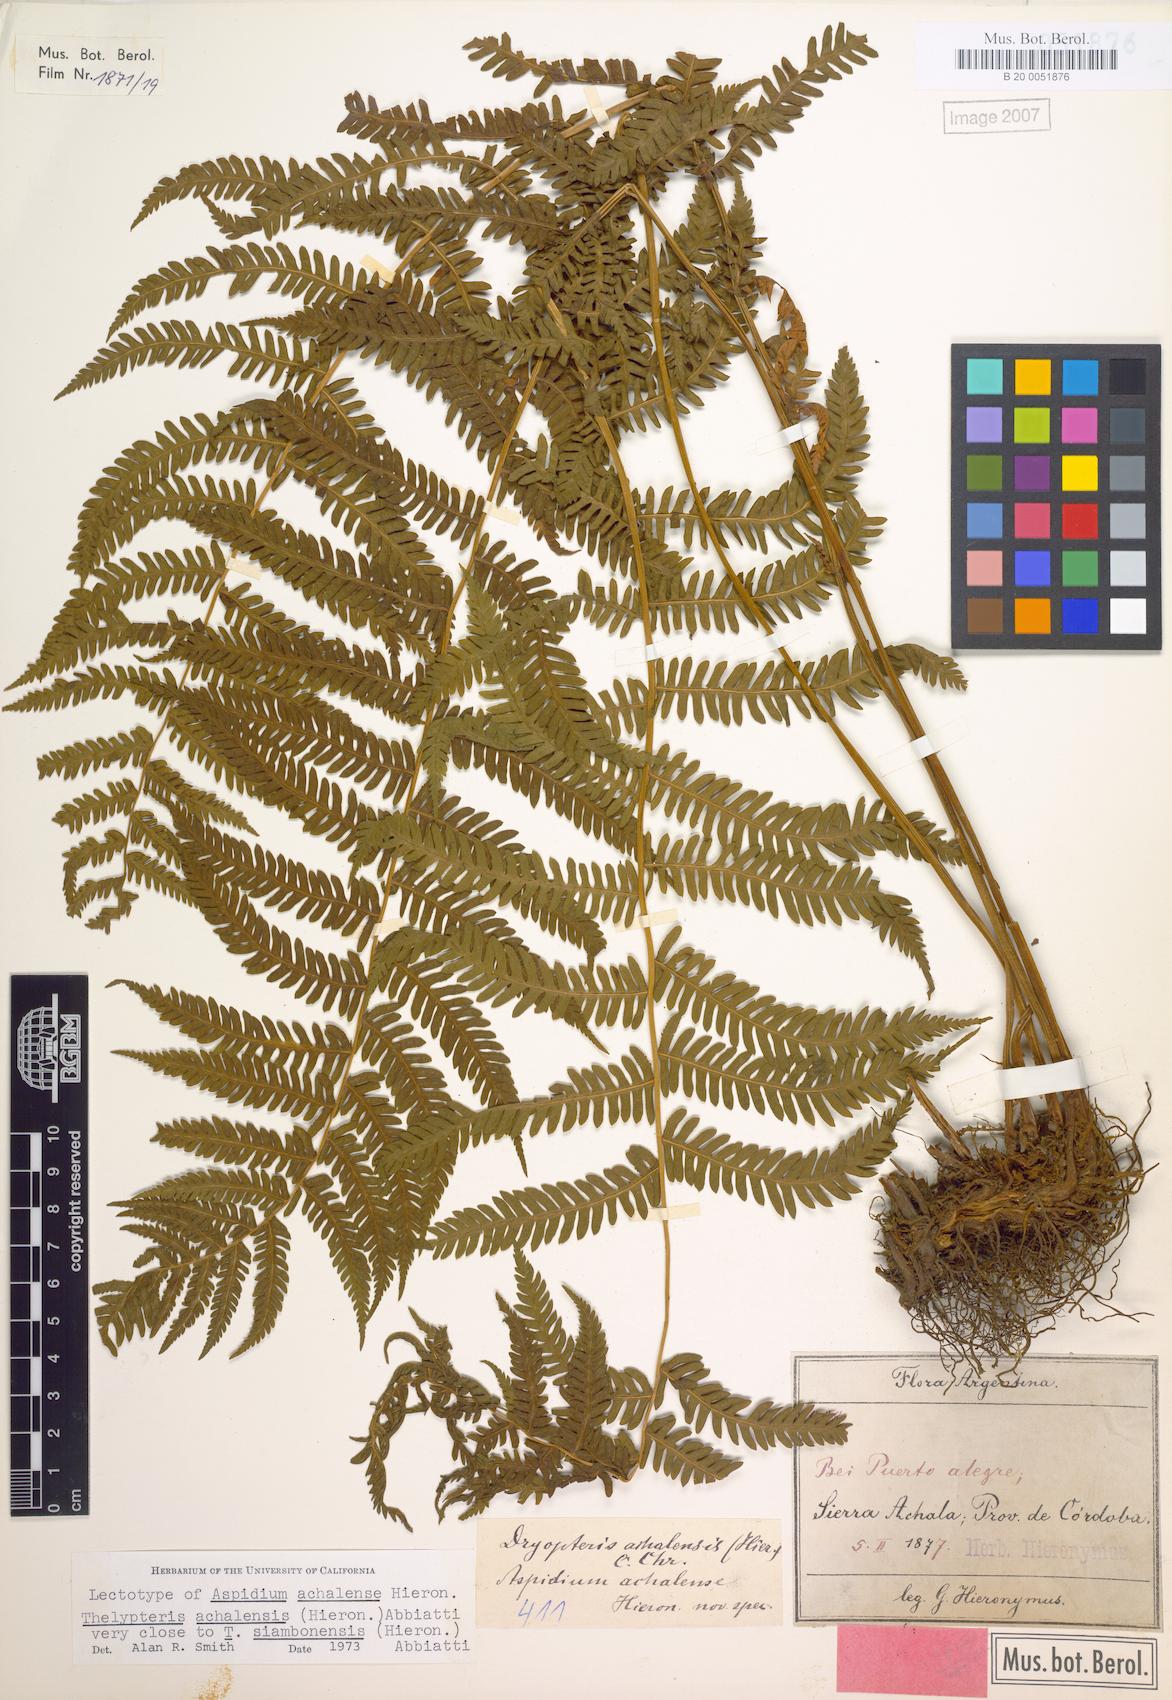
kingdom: Plantae
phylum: Tracheophyta
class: Polypodiopsida
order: Polypodiales
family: Thelypteridaceae
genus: Amauropelta
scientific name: Amauropelta achalensis
